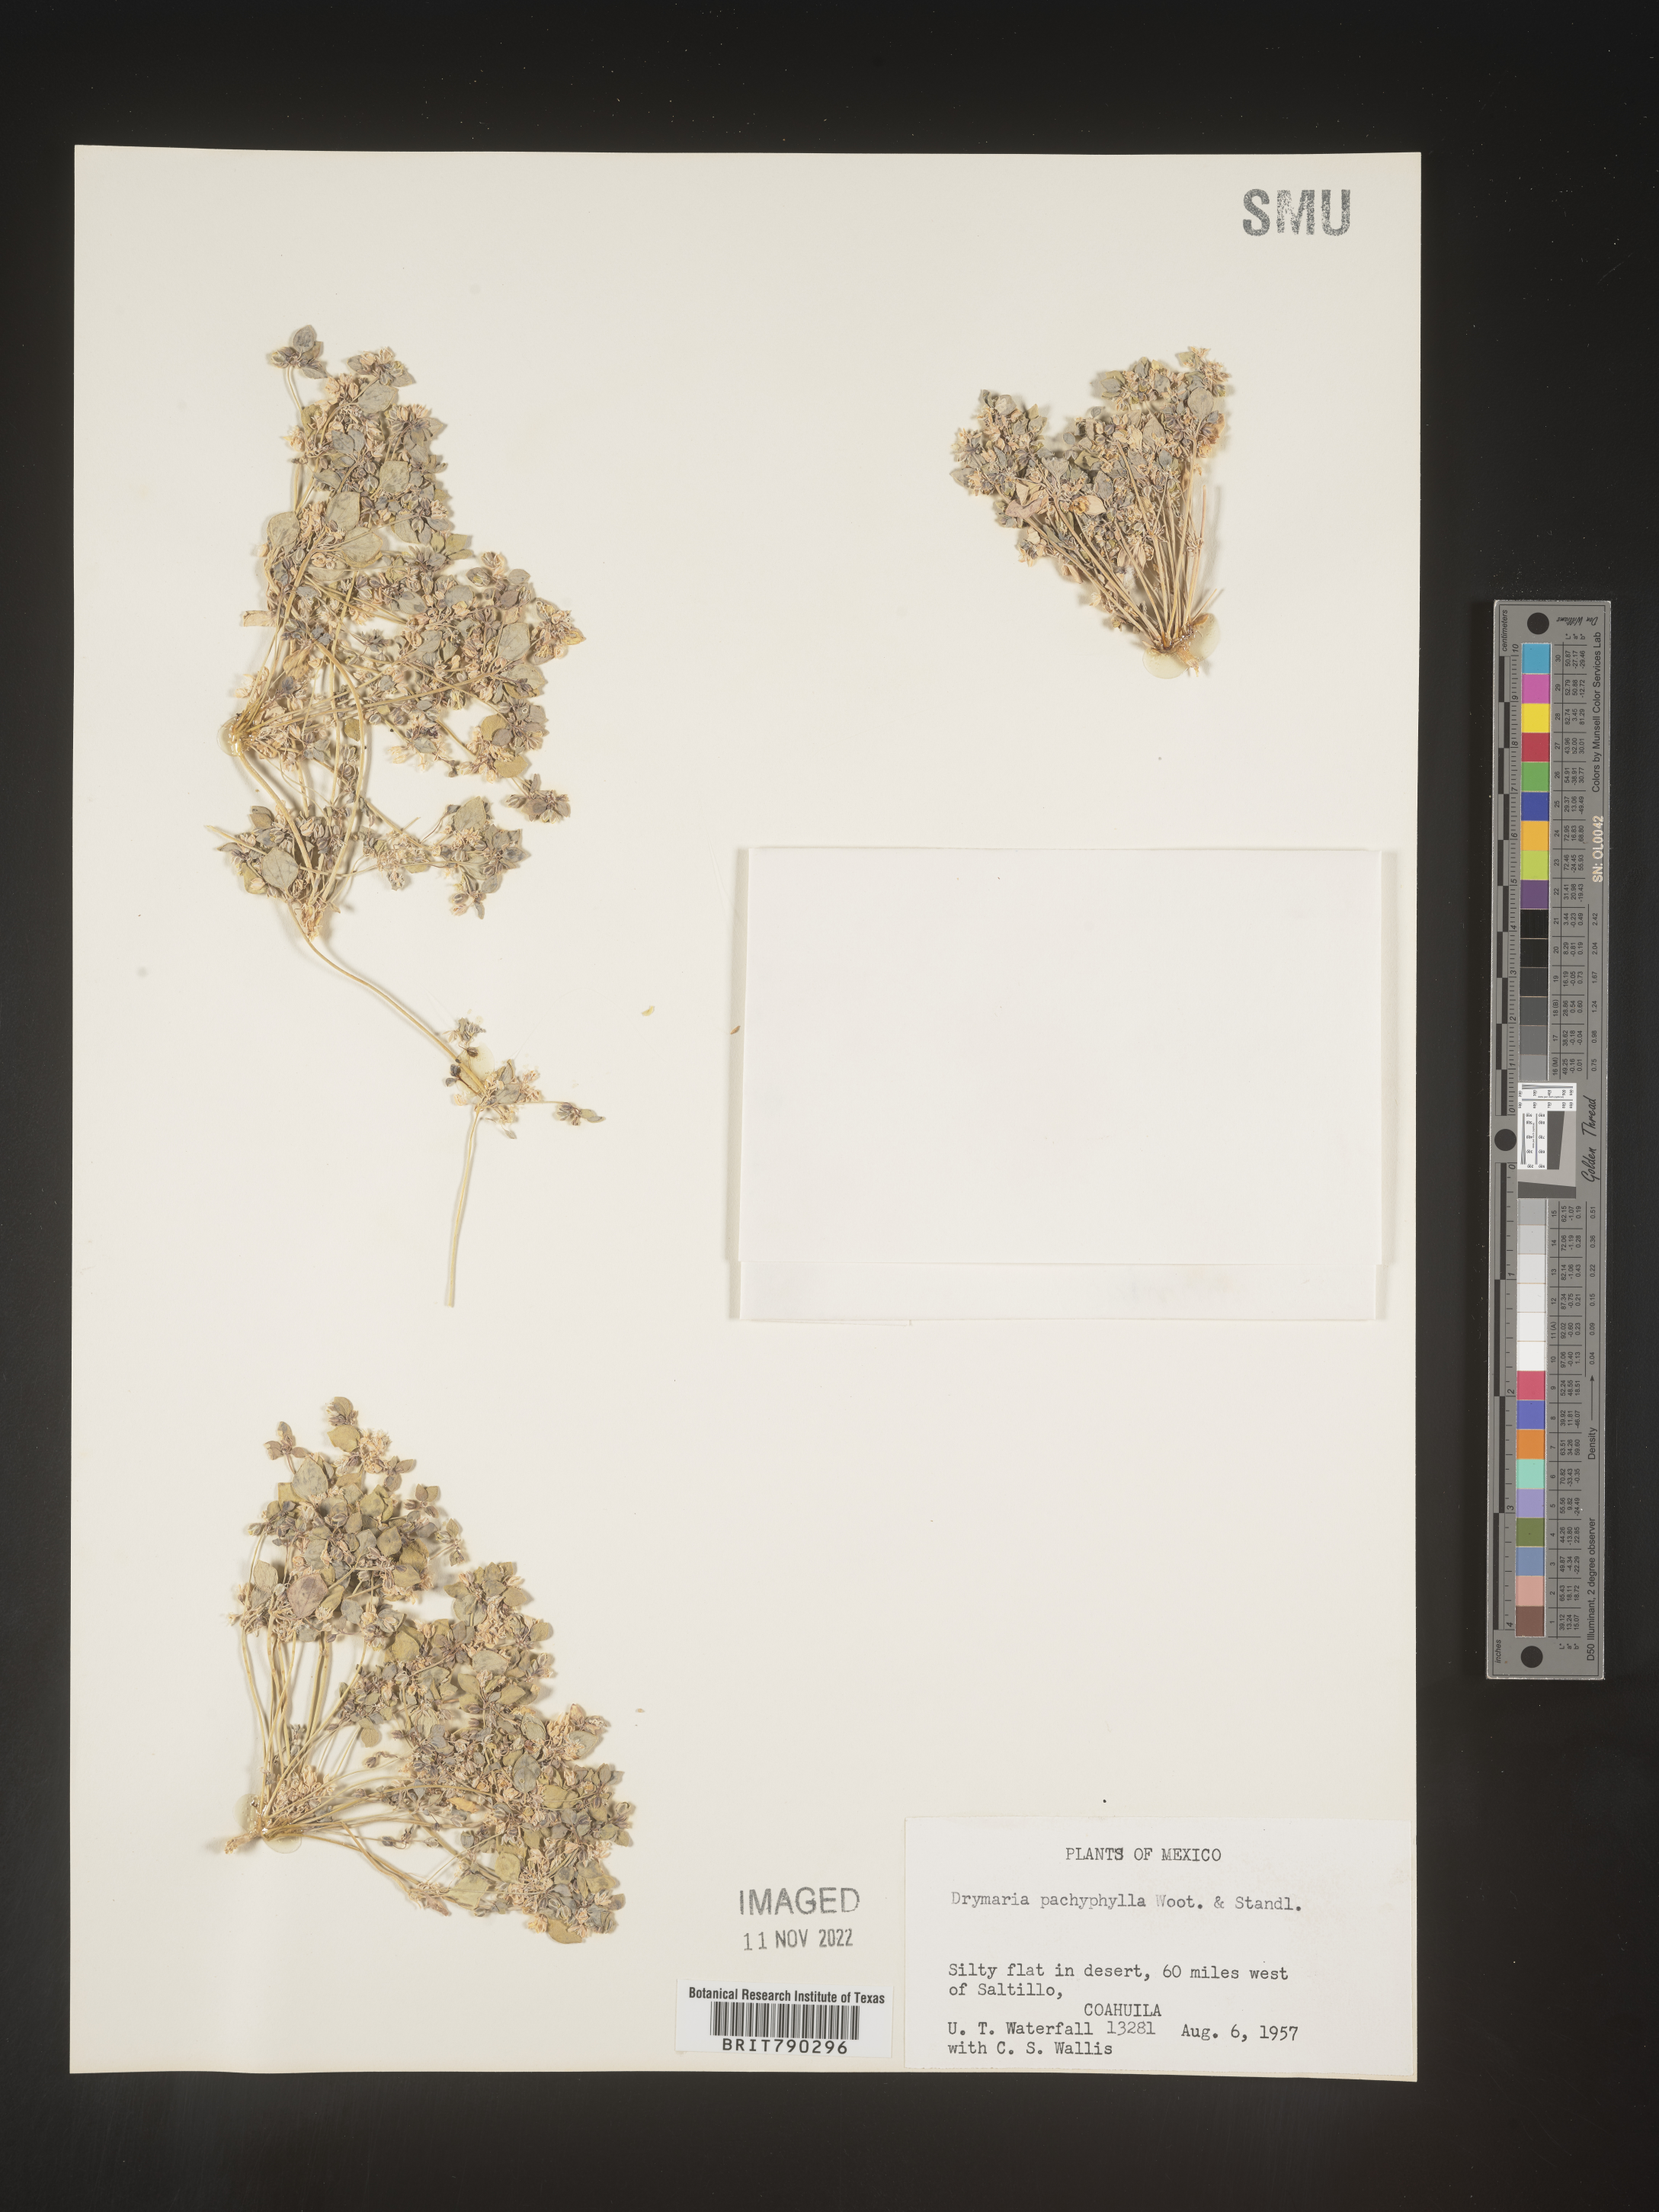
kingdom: Plantae
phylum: Tracheophyta
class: Magnoliopsida
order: Caryophyllales
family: Caryophyllaceae
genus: Drymaria
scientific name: Drymaria
